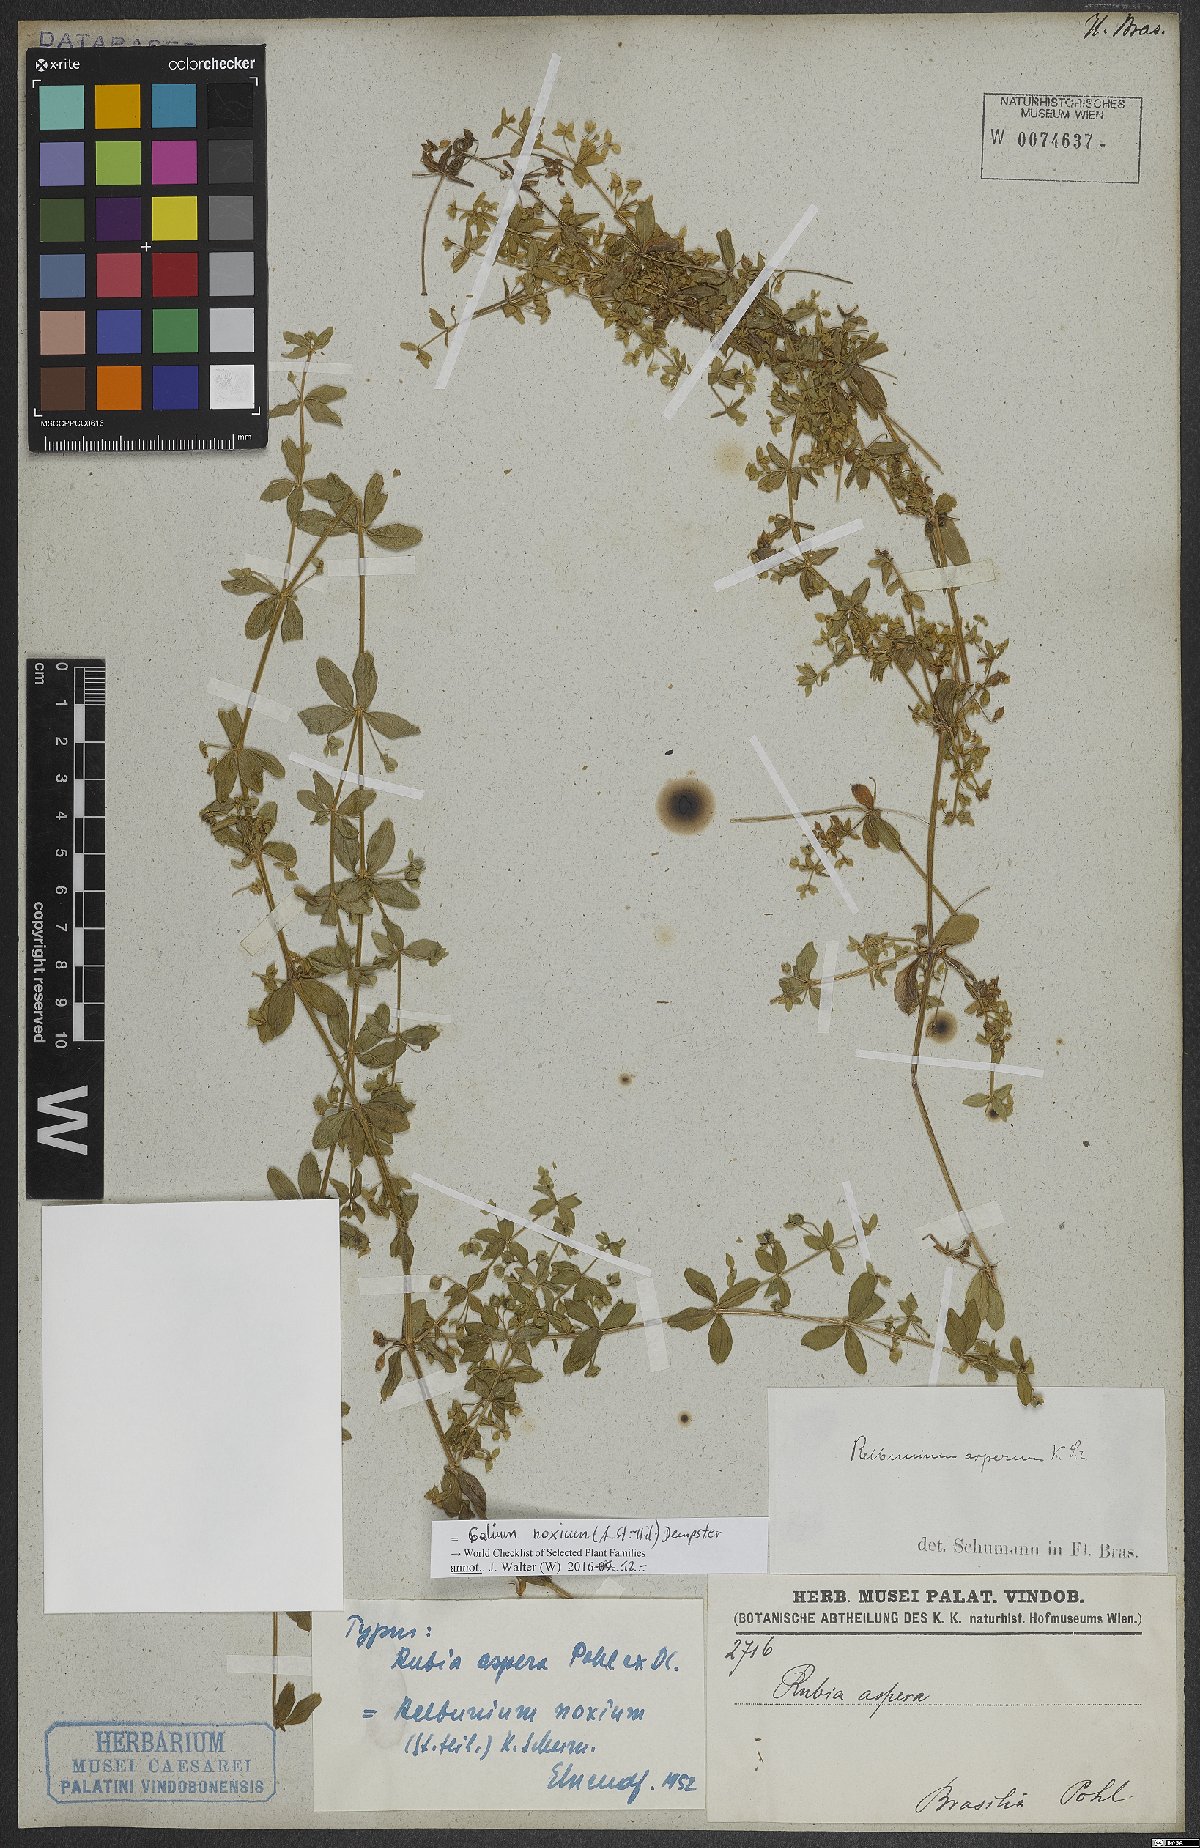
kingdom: Plantae
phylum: Tracheophyta
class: Magnoliopsida
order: Gentianales
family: Rubiaceae
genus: Galium
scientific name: Galium noxium
